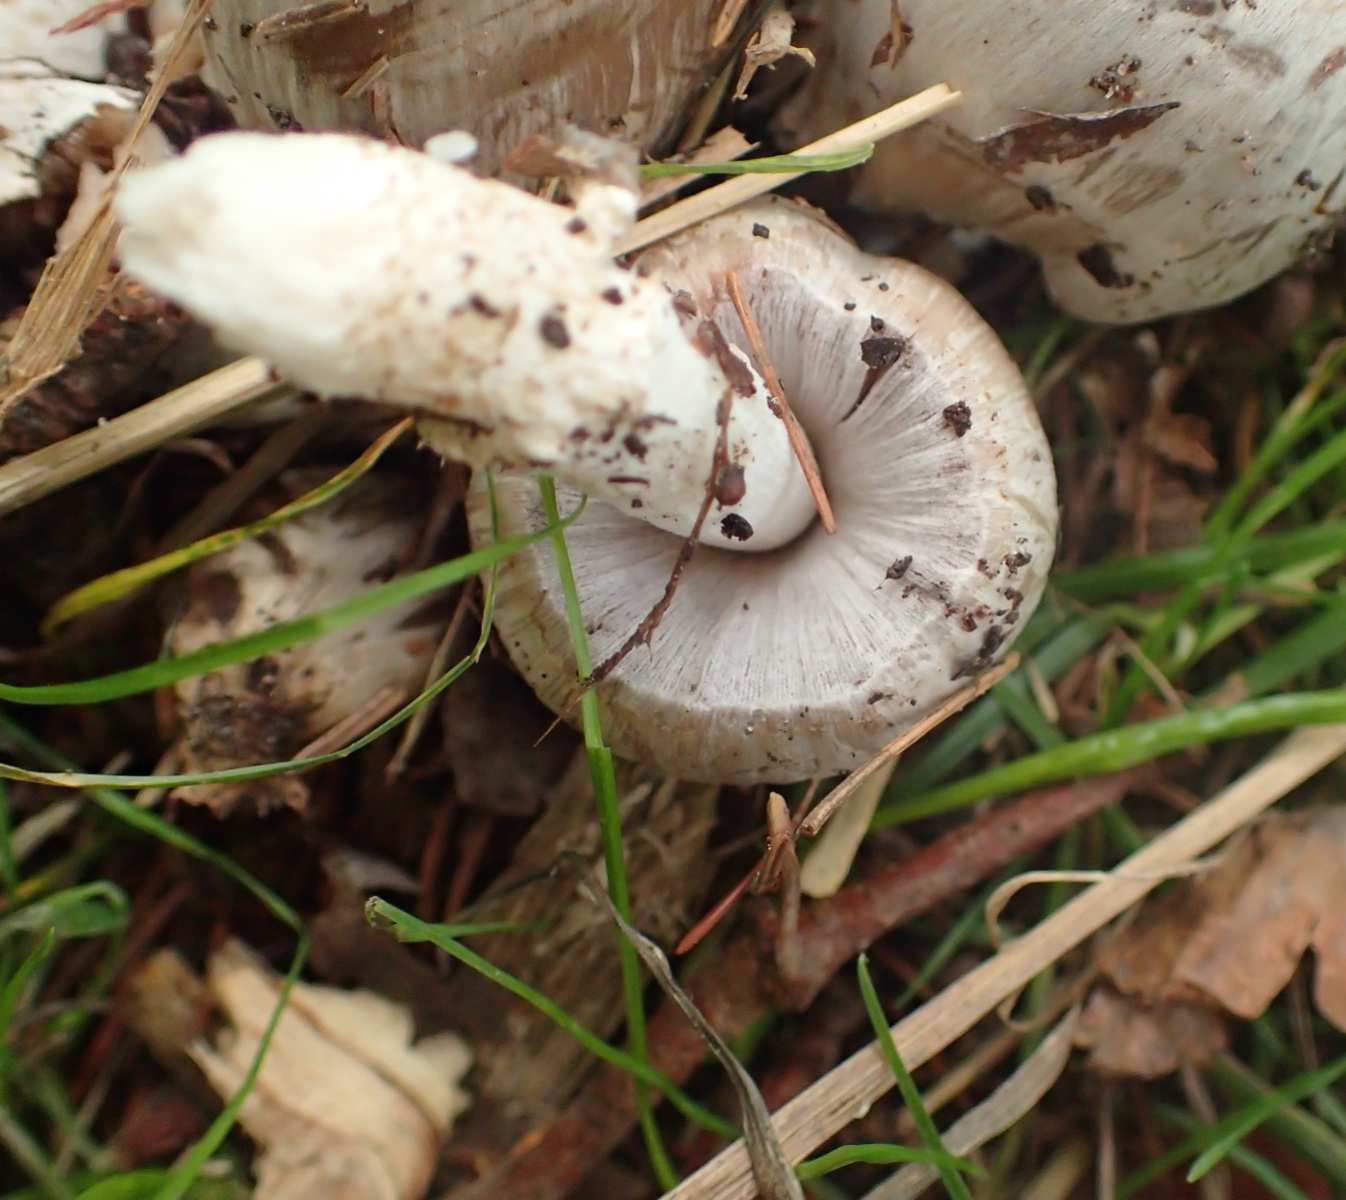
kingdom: Fungi
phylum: Basidiomycota
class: Agaricomycetes
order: Agaricales
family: Psathyrellaceae
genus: Coprinopsis
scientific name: Coprinopsis atramentaria
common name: almindelig blækhat
